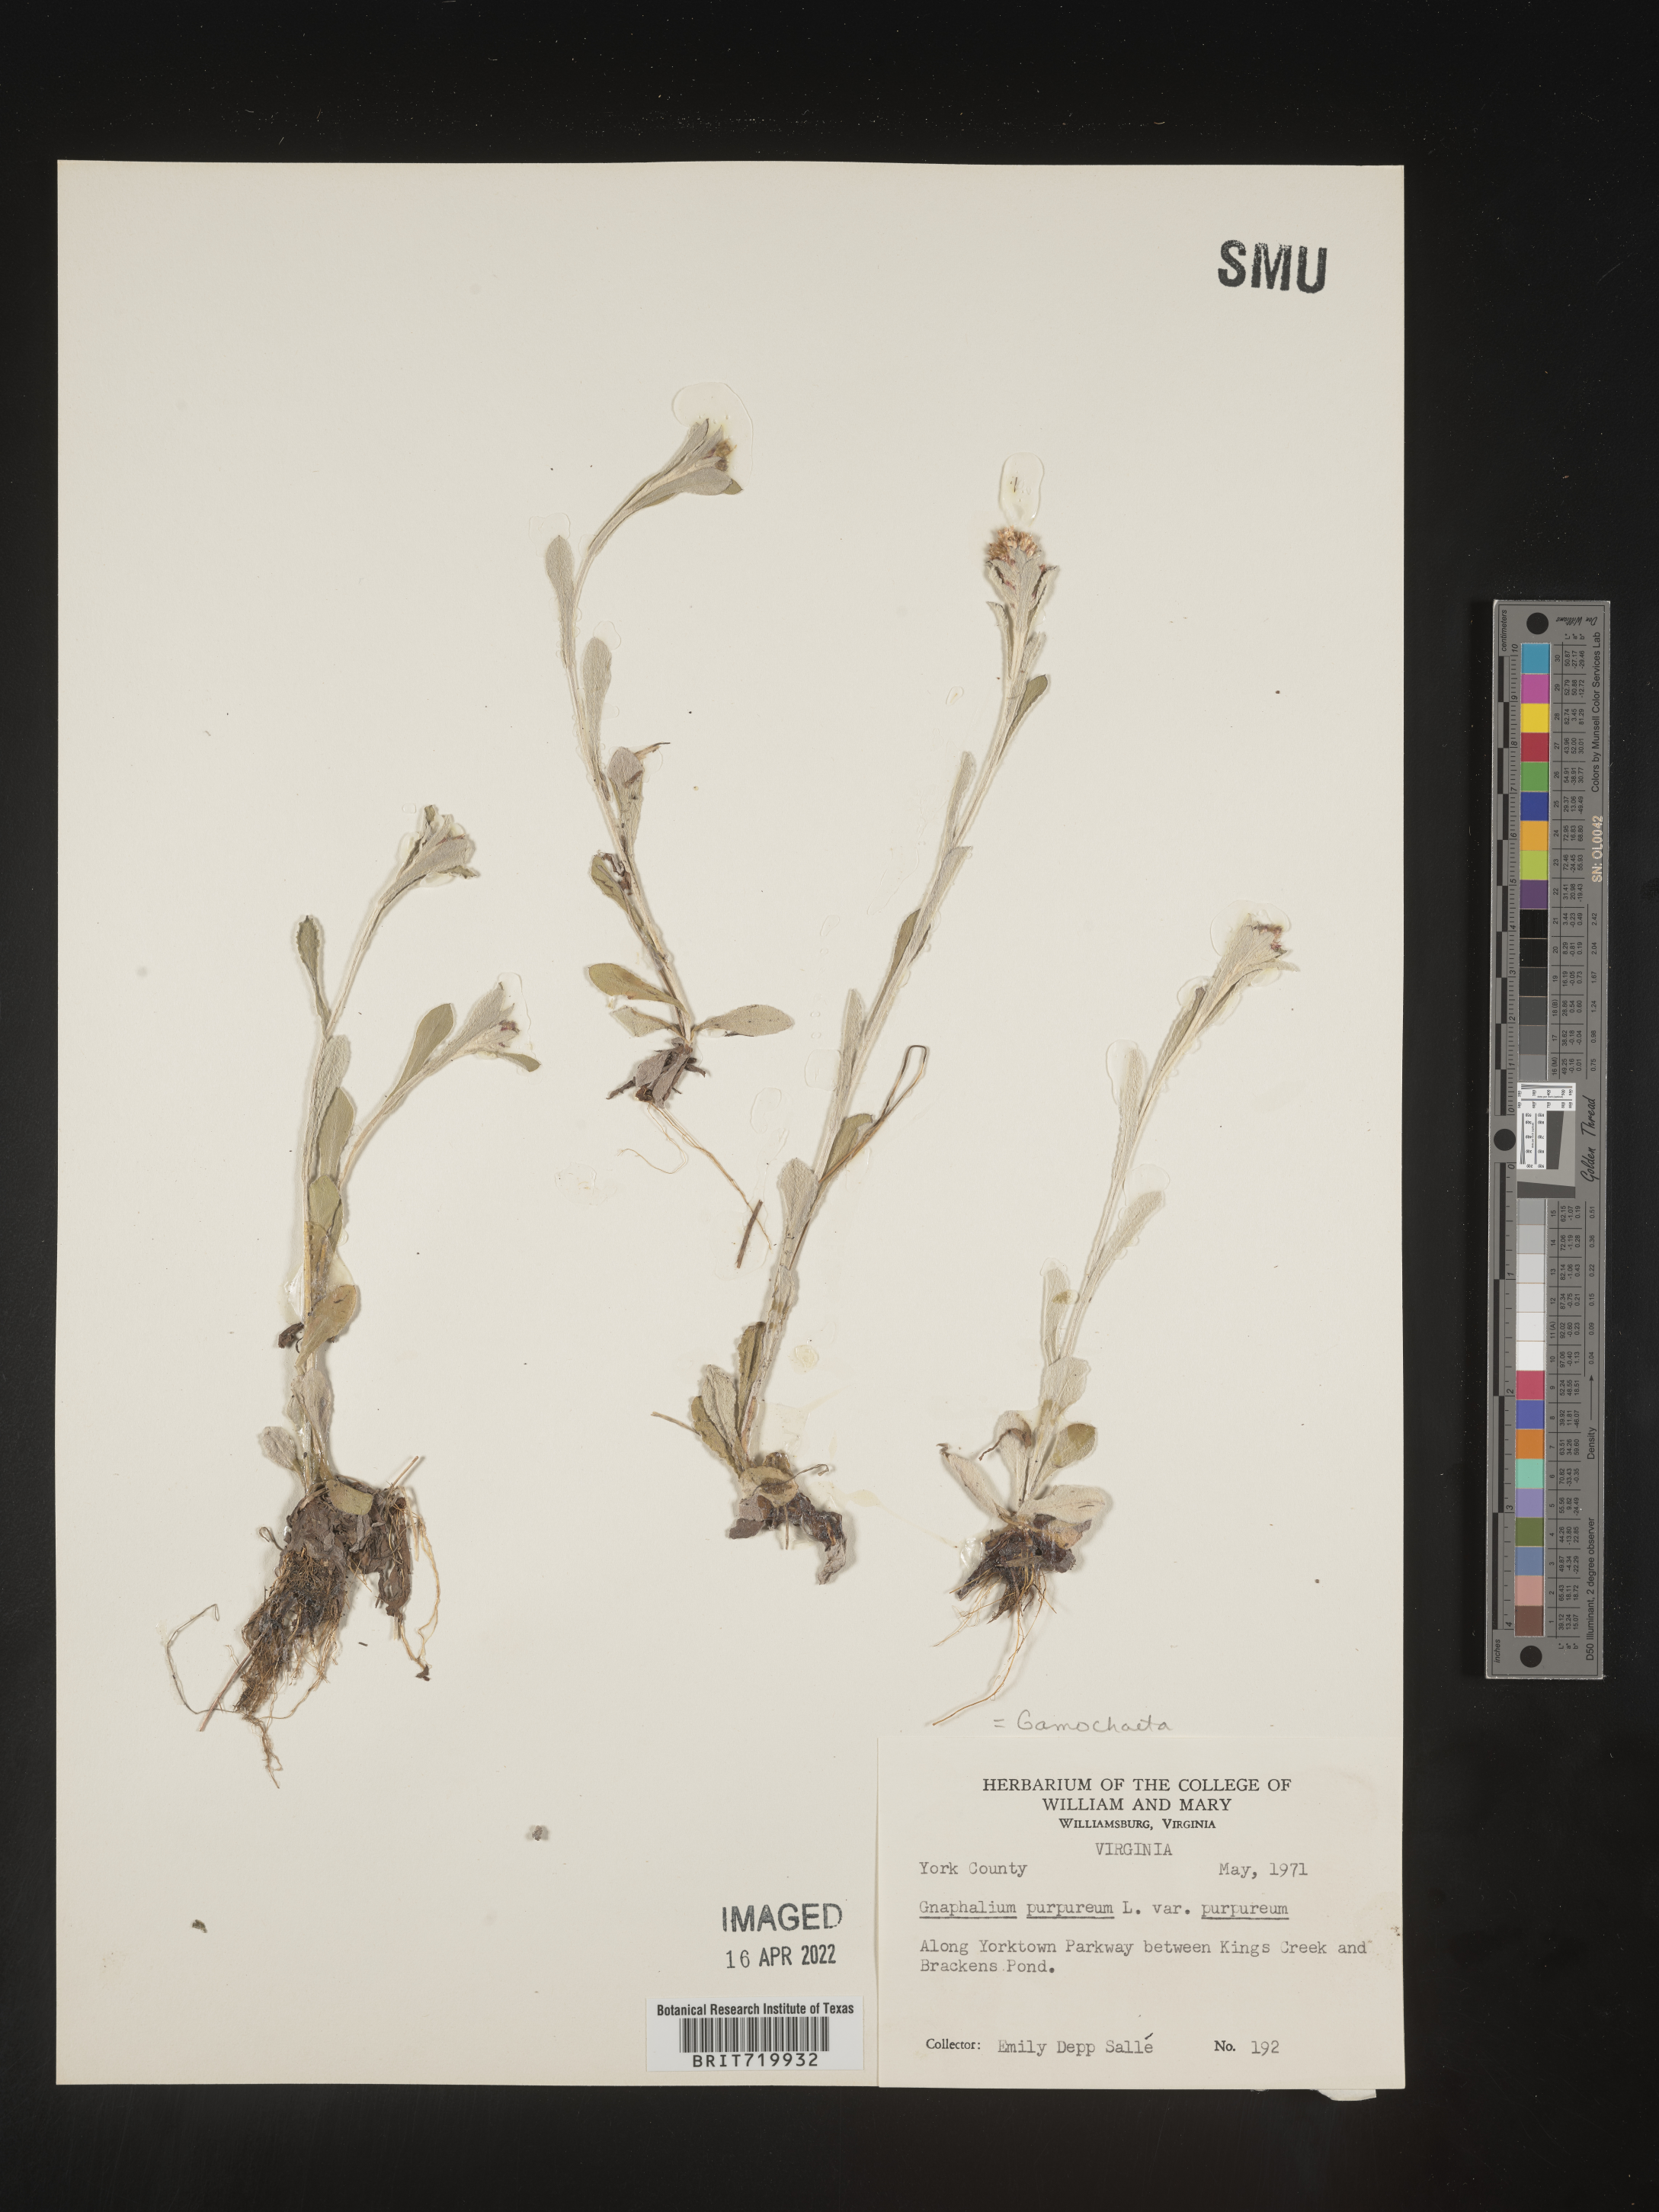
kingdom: Plantae
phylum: Tracheophyta
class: Magnoliopsida
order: Asterales
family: Asteraceae
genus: Gamochaeta
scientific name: Gamochaeta purpurea
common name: Purple cudweed
